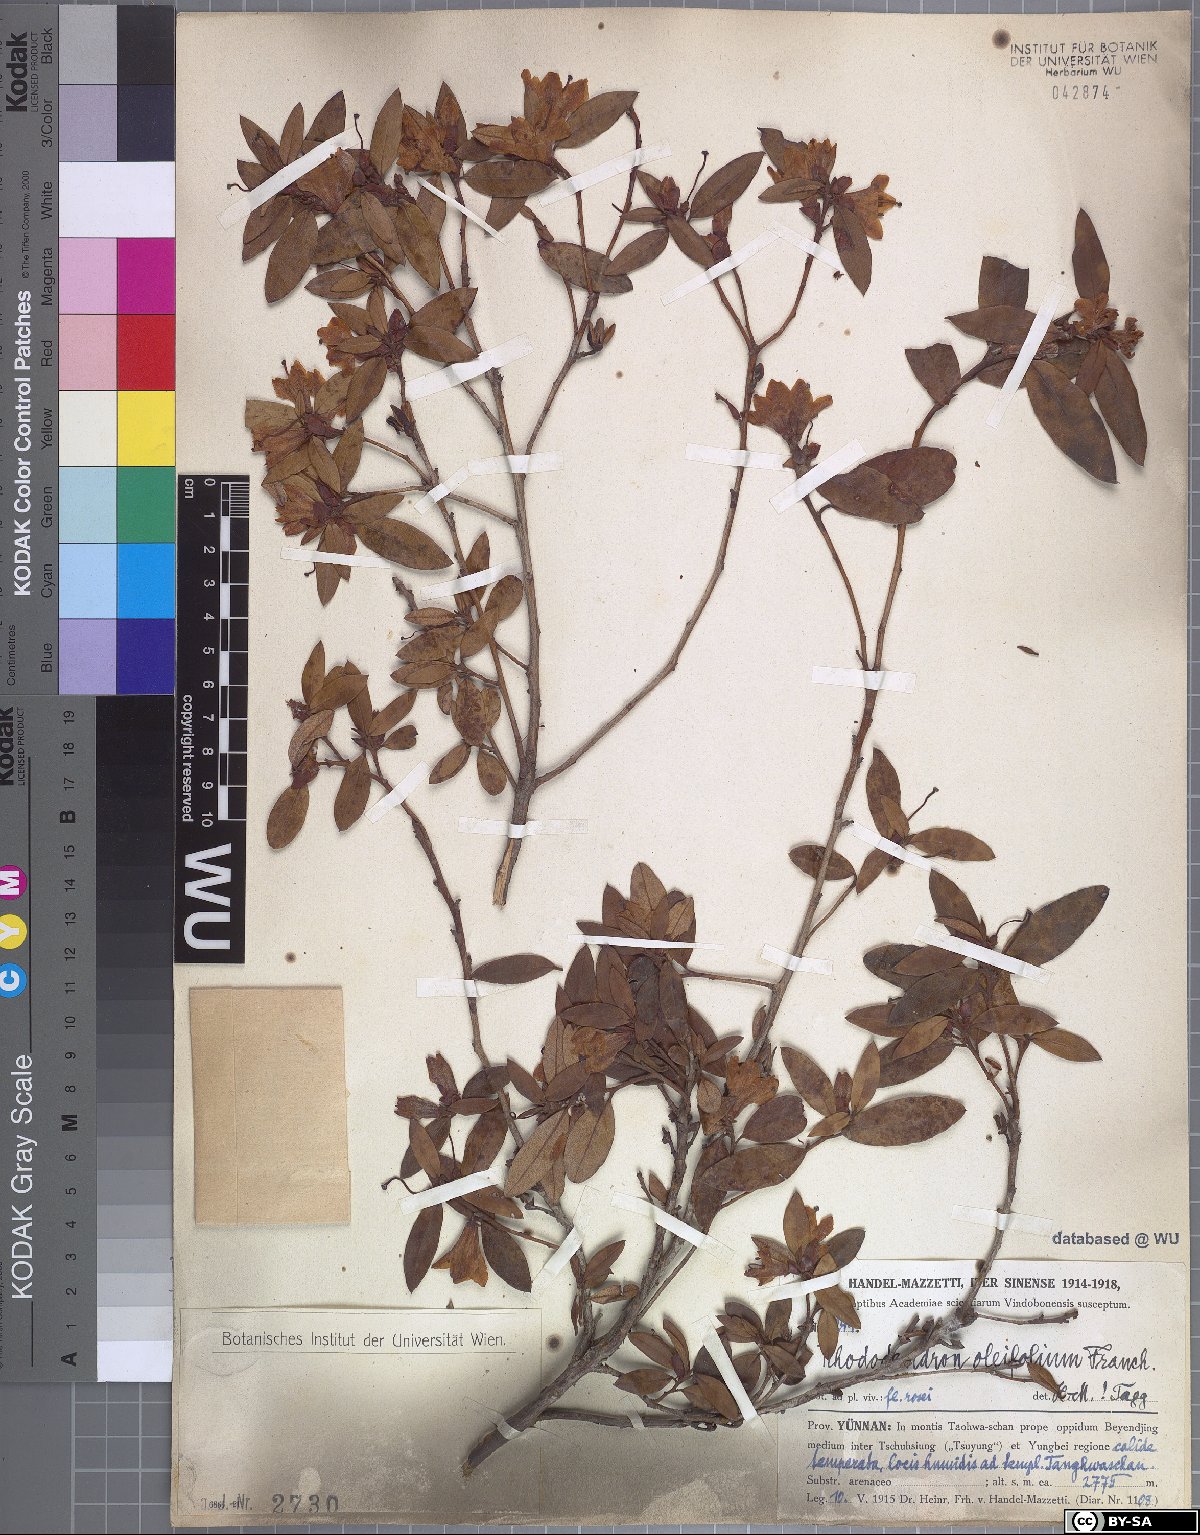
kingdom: Plantae
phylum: Tracheophyta
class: Magnoliopsida
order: Ericales
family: Ericaceae
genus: Rhododendron
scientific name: Rhododendron virgatum
